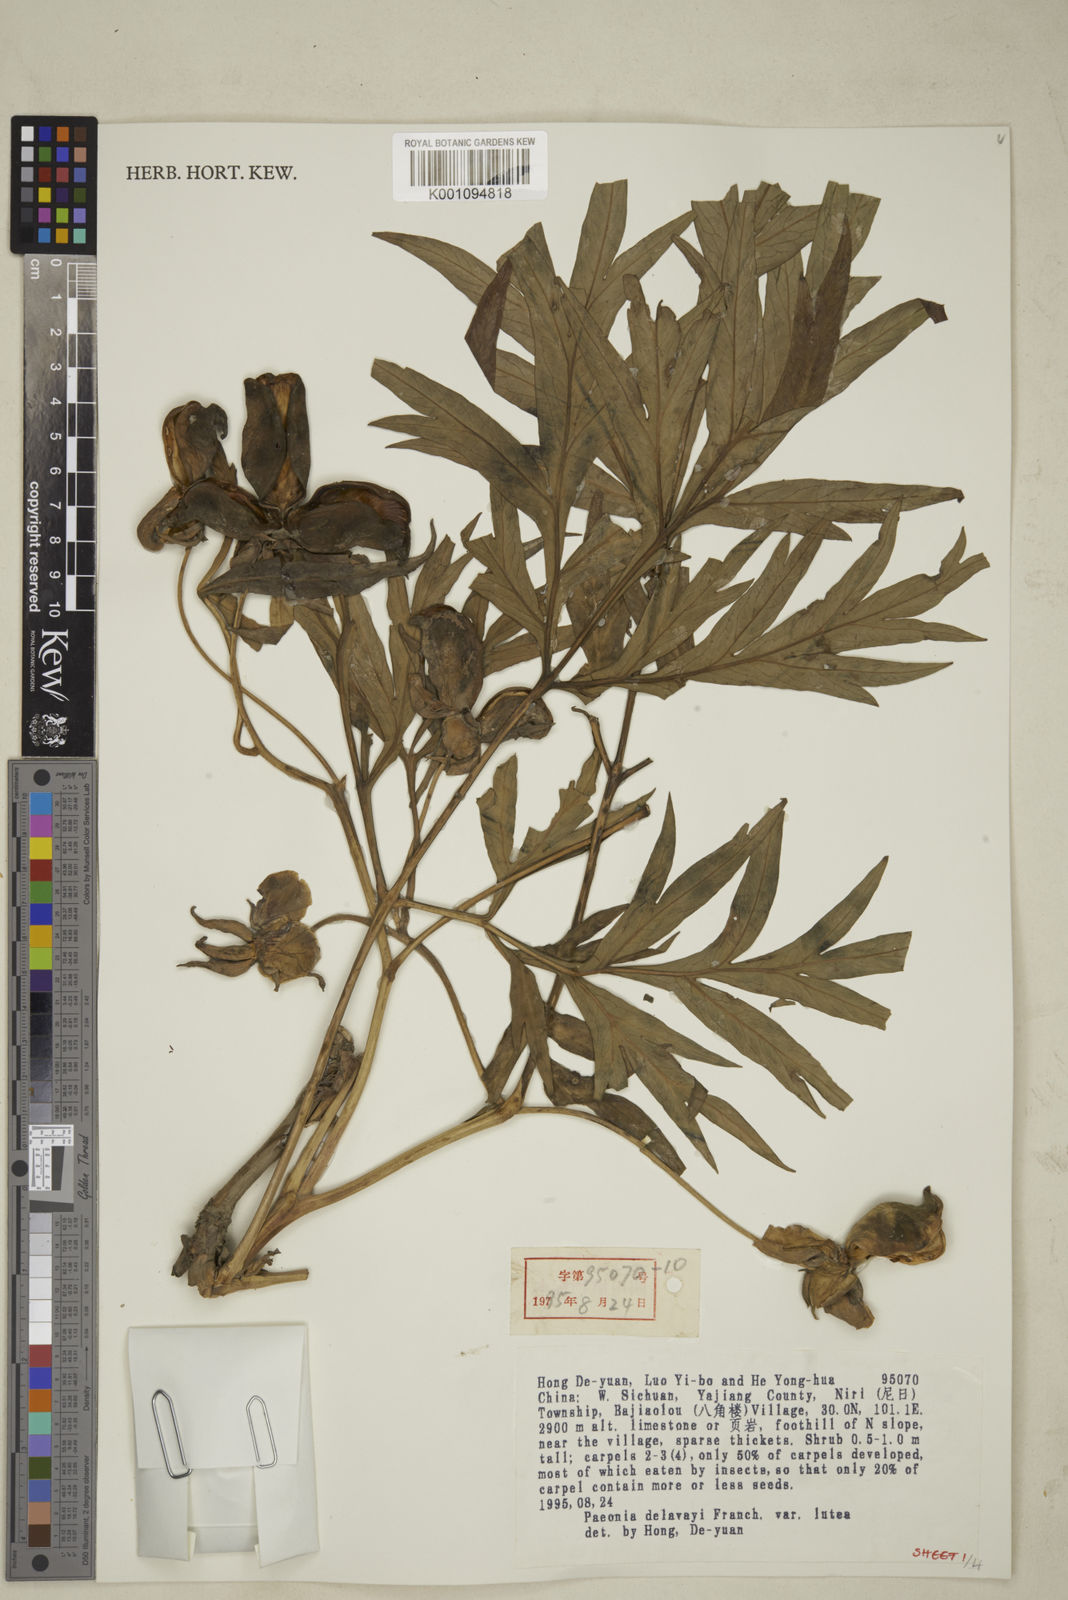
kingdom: Plantae
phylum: Tracheophyta
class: Magnoliopsida
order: Saxifragales
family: Paeoniaceae
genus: Paeonia
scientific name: Paeonia delavayi
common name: Dian mu dan
